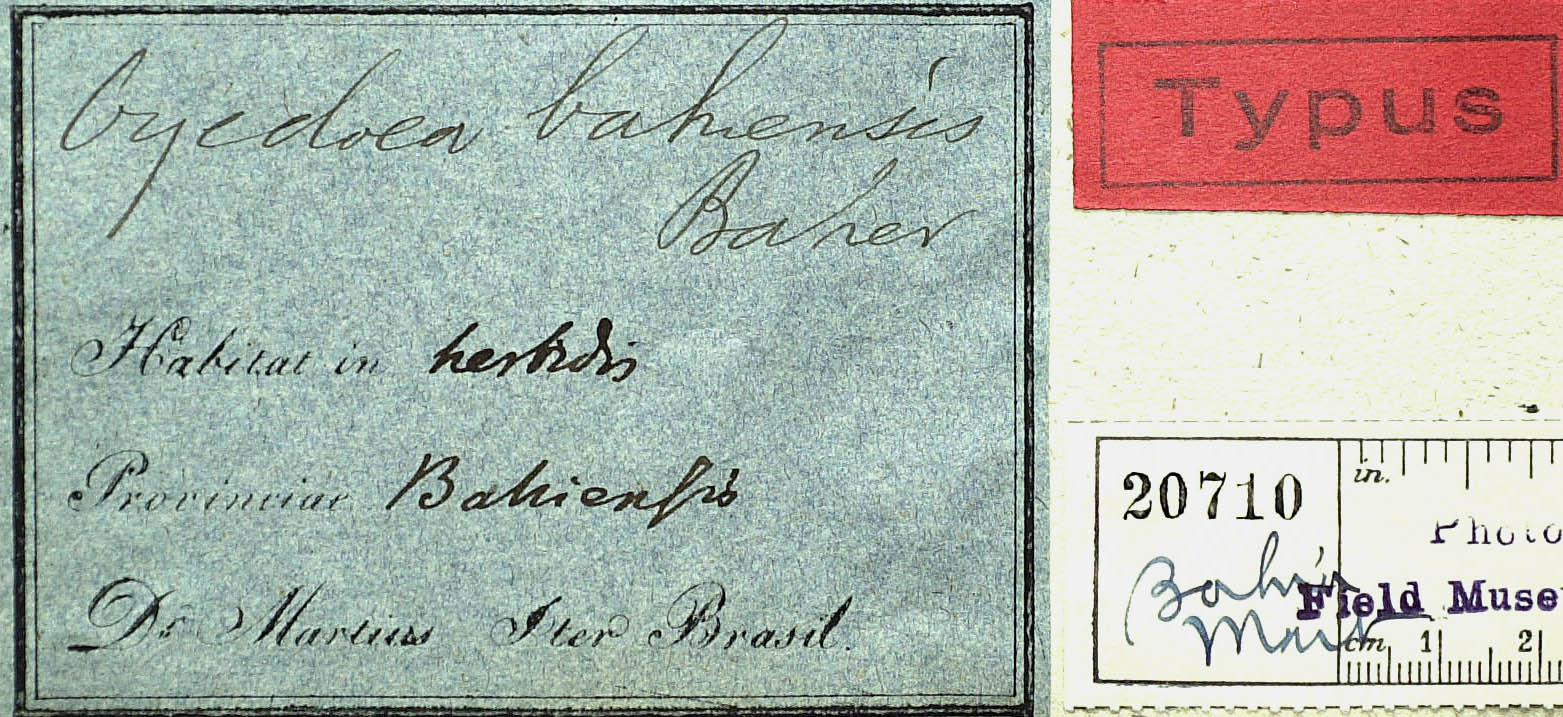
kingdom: Plantae
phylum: Tracheophyta
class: Magnoliopsida
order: Asterales
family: Asteraceae
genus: Oyedaea
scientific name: Oyedaea bahiensis
